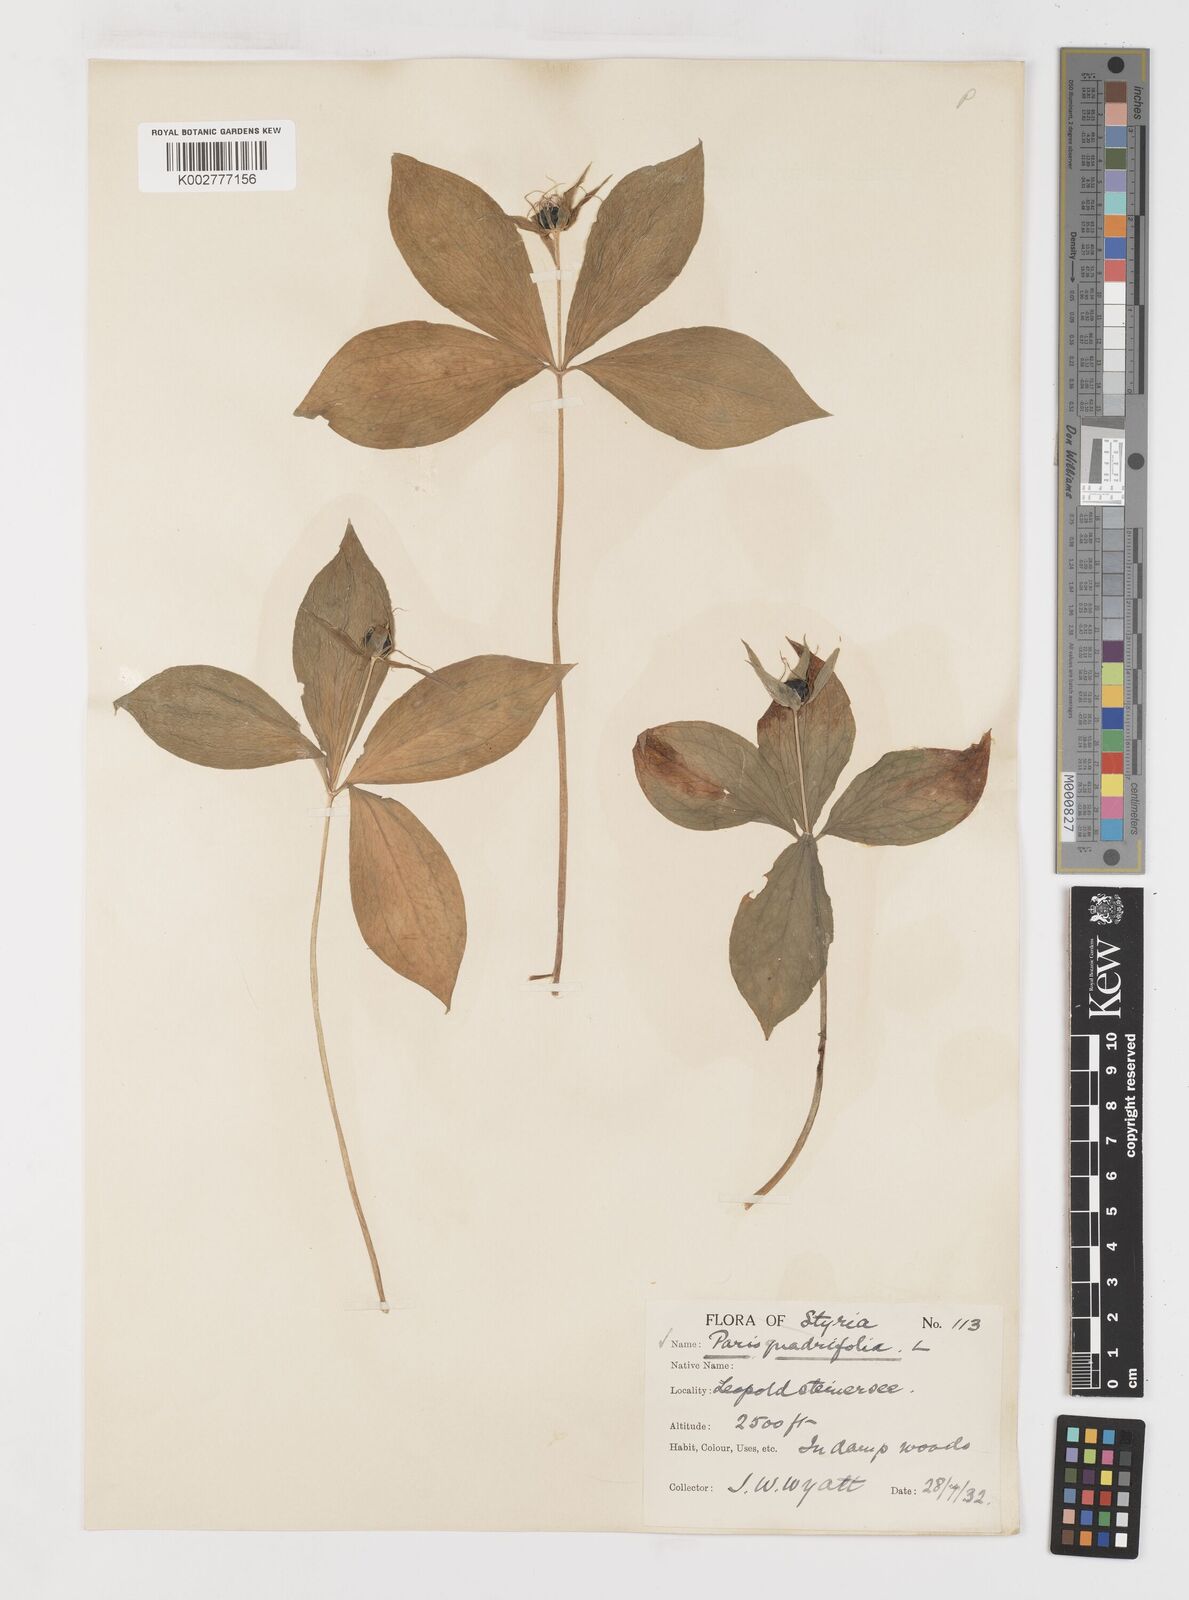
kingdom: Plantae
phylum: Tracheophyta
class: Liliopsida
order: Liliales
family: Melanthiaceae
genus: Paris
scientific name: Paris quadrifolia
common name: Herb-paris
